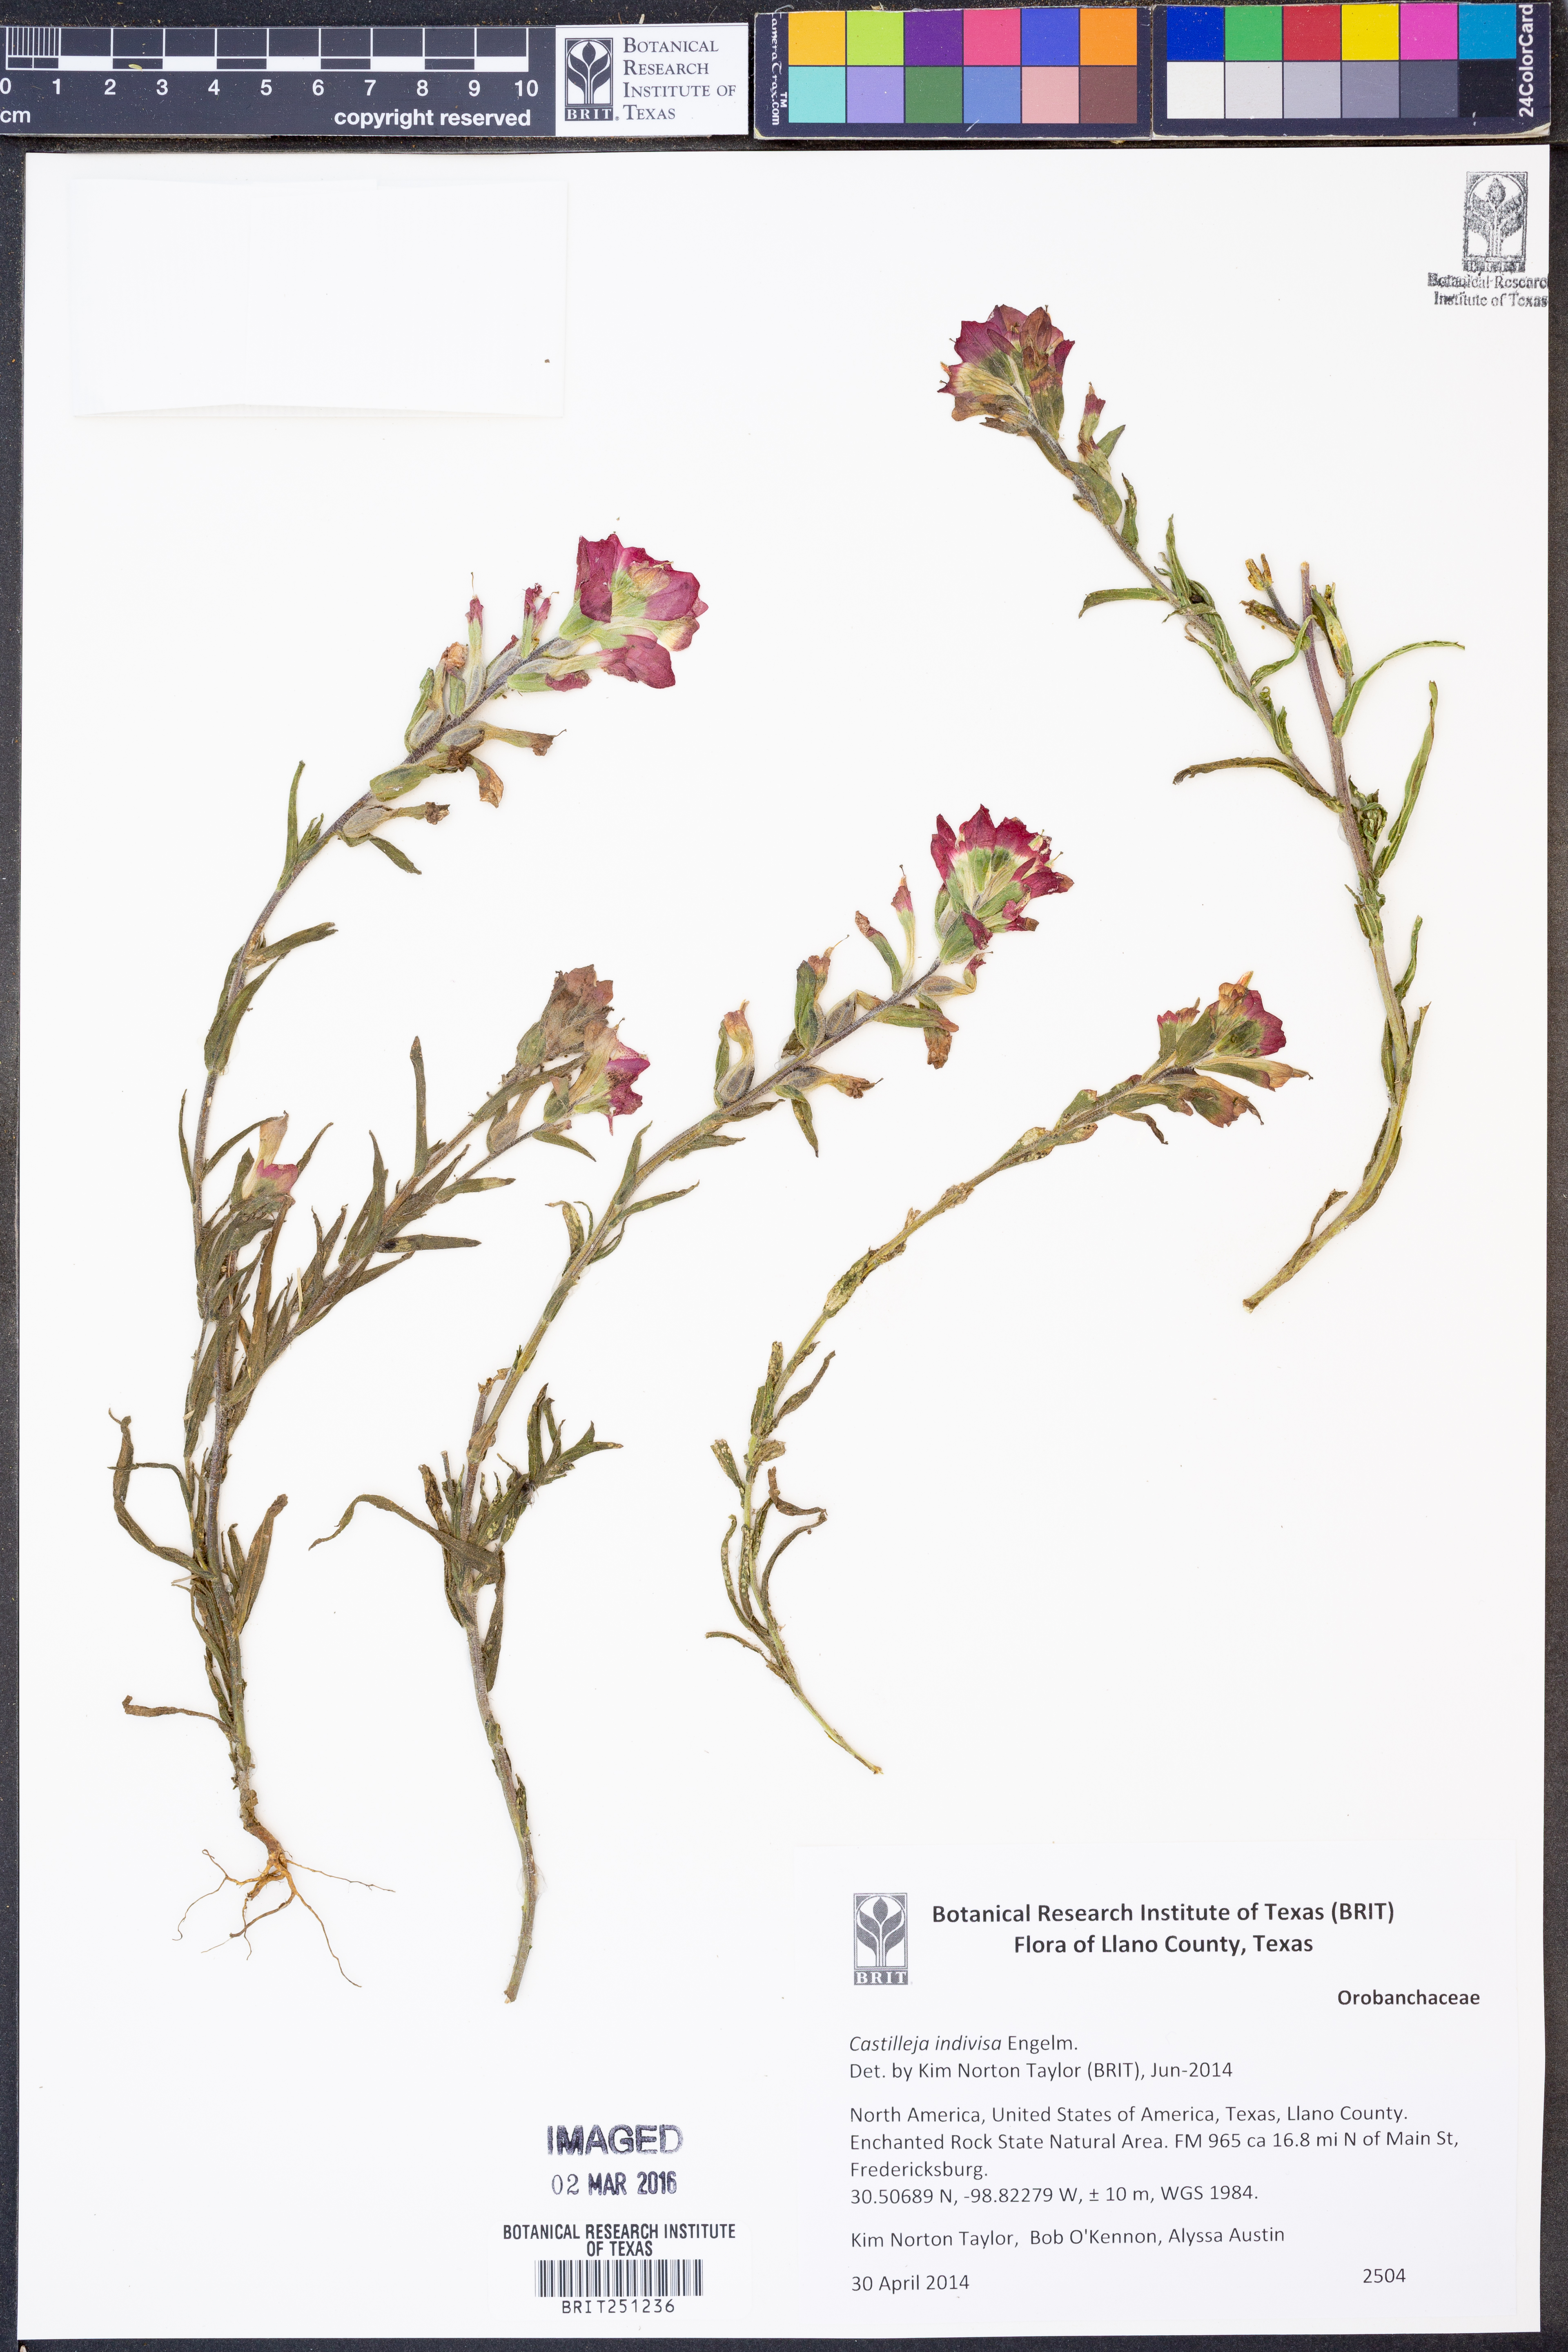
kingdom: Plantae
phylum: Tracheophyta
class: Magnoliopsida
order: Lamiales
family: Orobanchaceae
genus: Castilleja
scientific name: Castilleja indivisa
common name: Texas paintbrush
